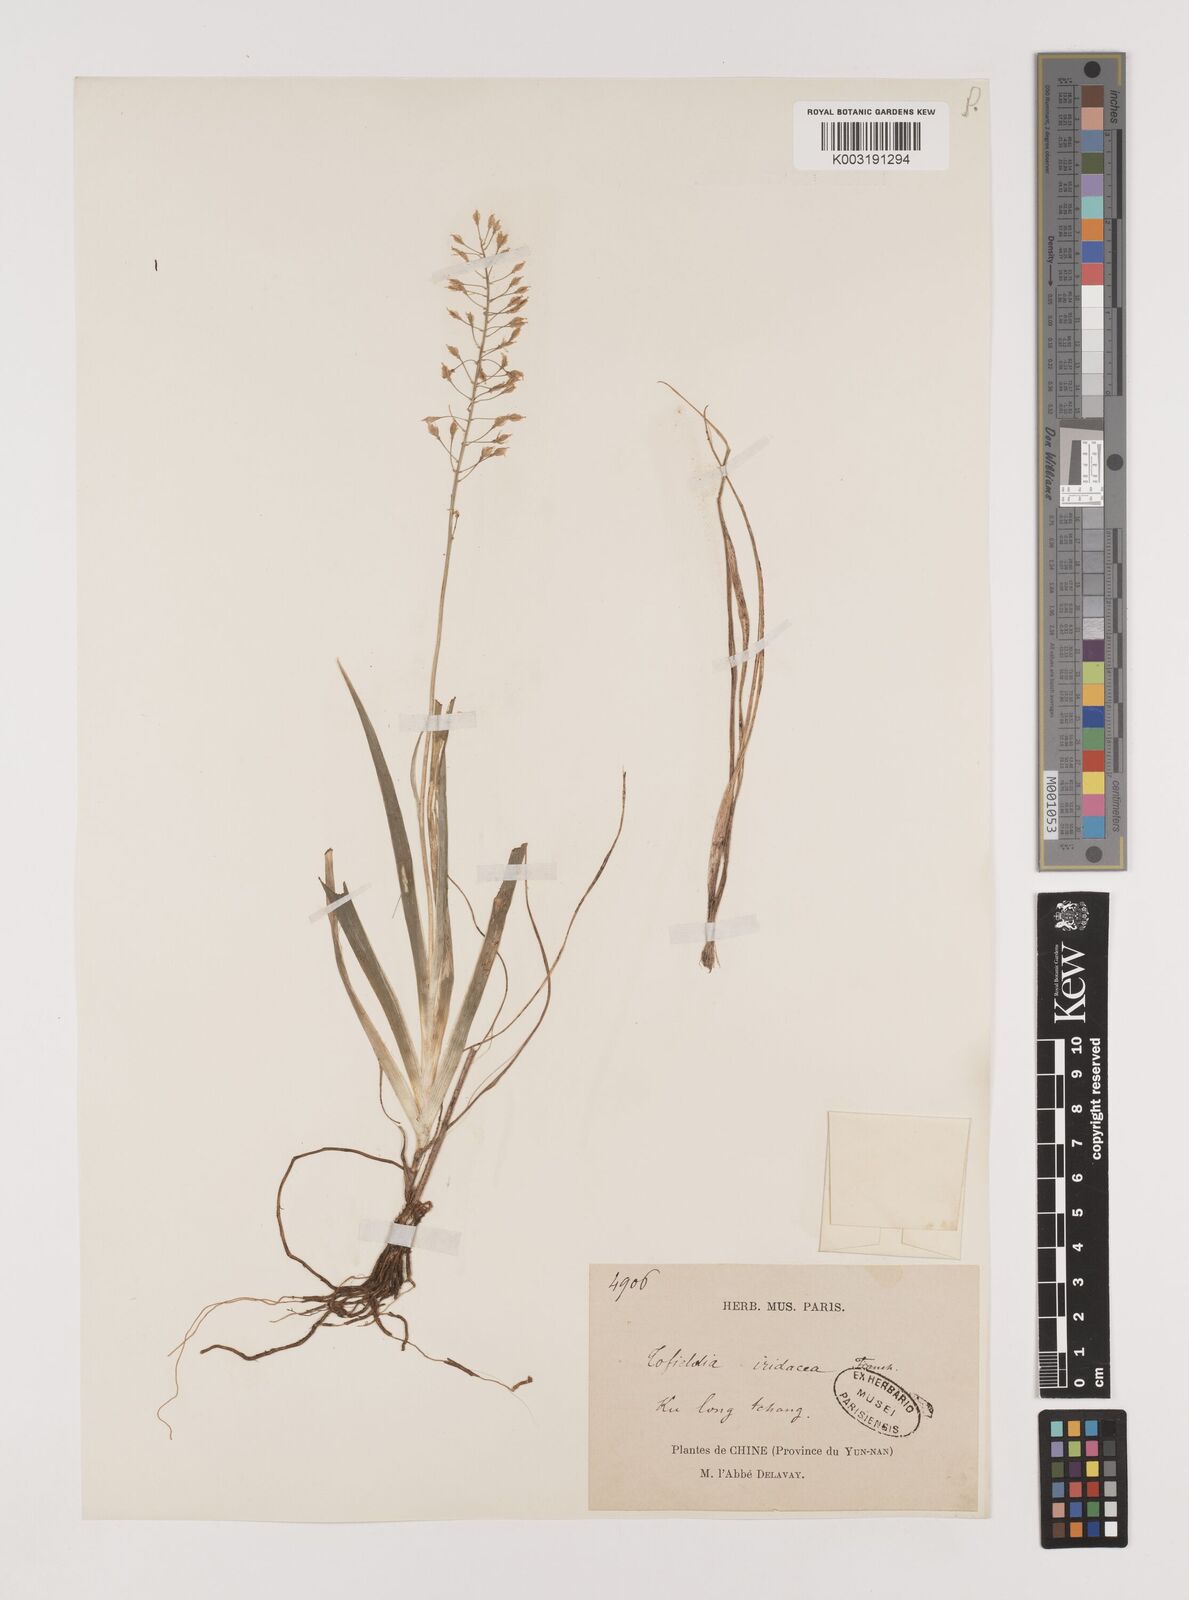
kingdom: Plantae
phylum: Tracheophyta
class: Liliopsida
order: Alismatales
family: Tofieldiaceae
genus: Tofieldia
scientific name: Tofieldia thibetica
